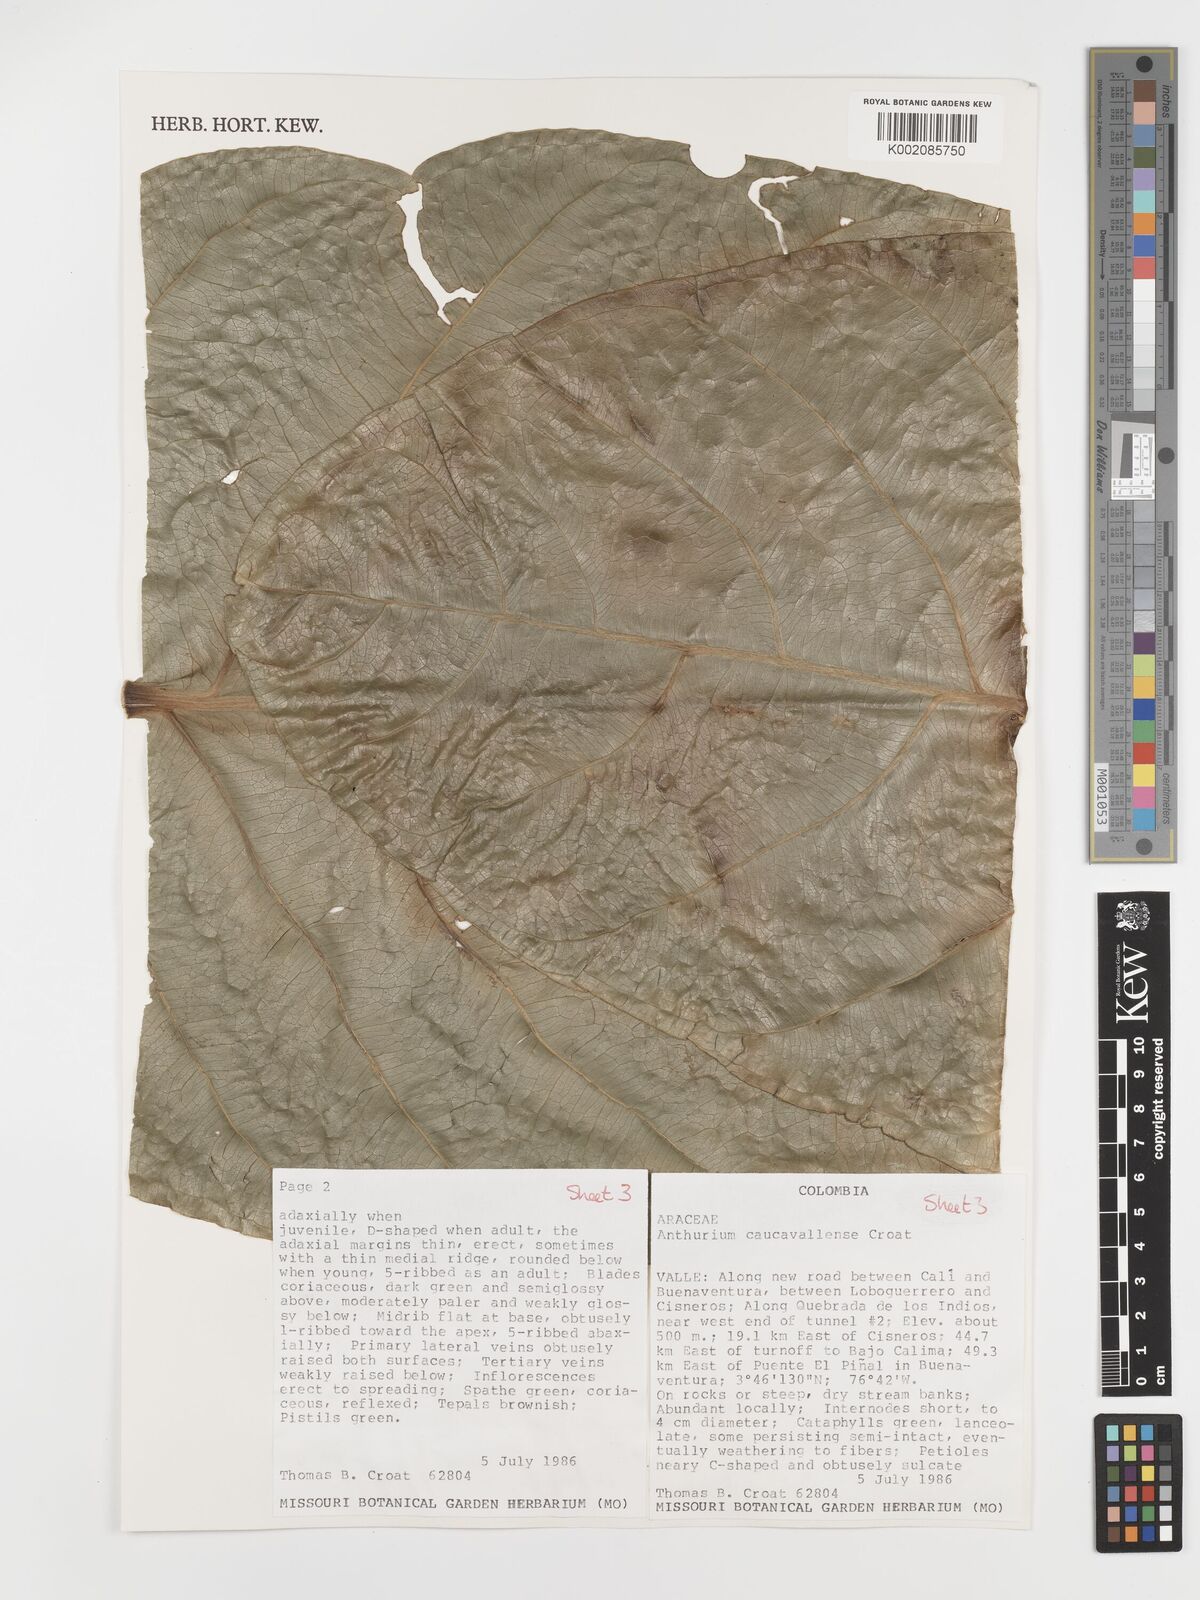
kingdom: Plantae
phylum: Tracheophyta
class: Liliopsida
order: Alismatales
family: Araceae
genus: Anthurium
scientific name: Anthurium caucavallense
